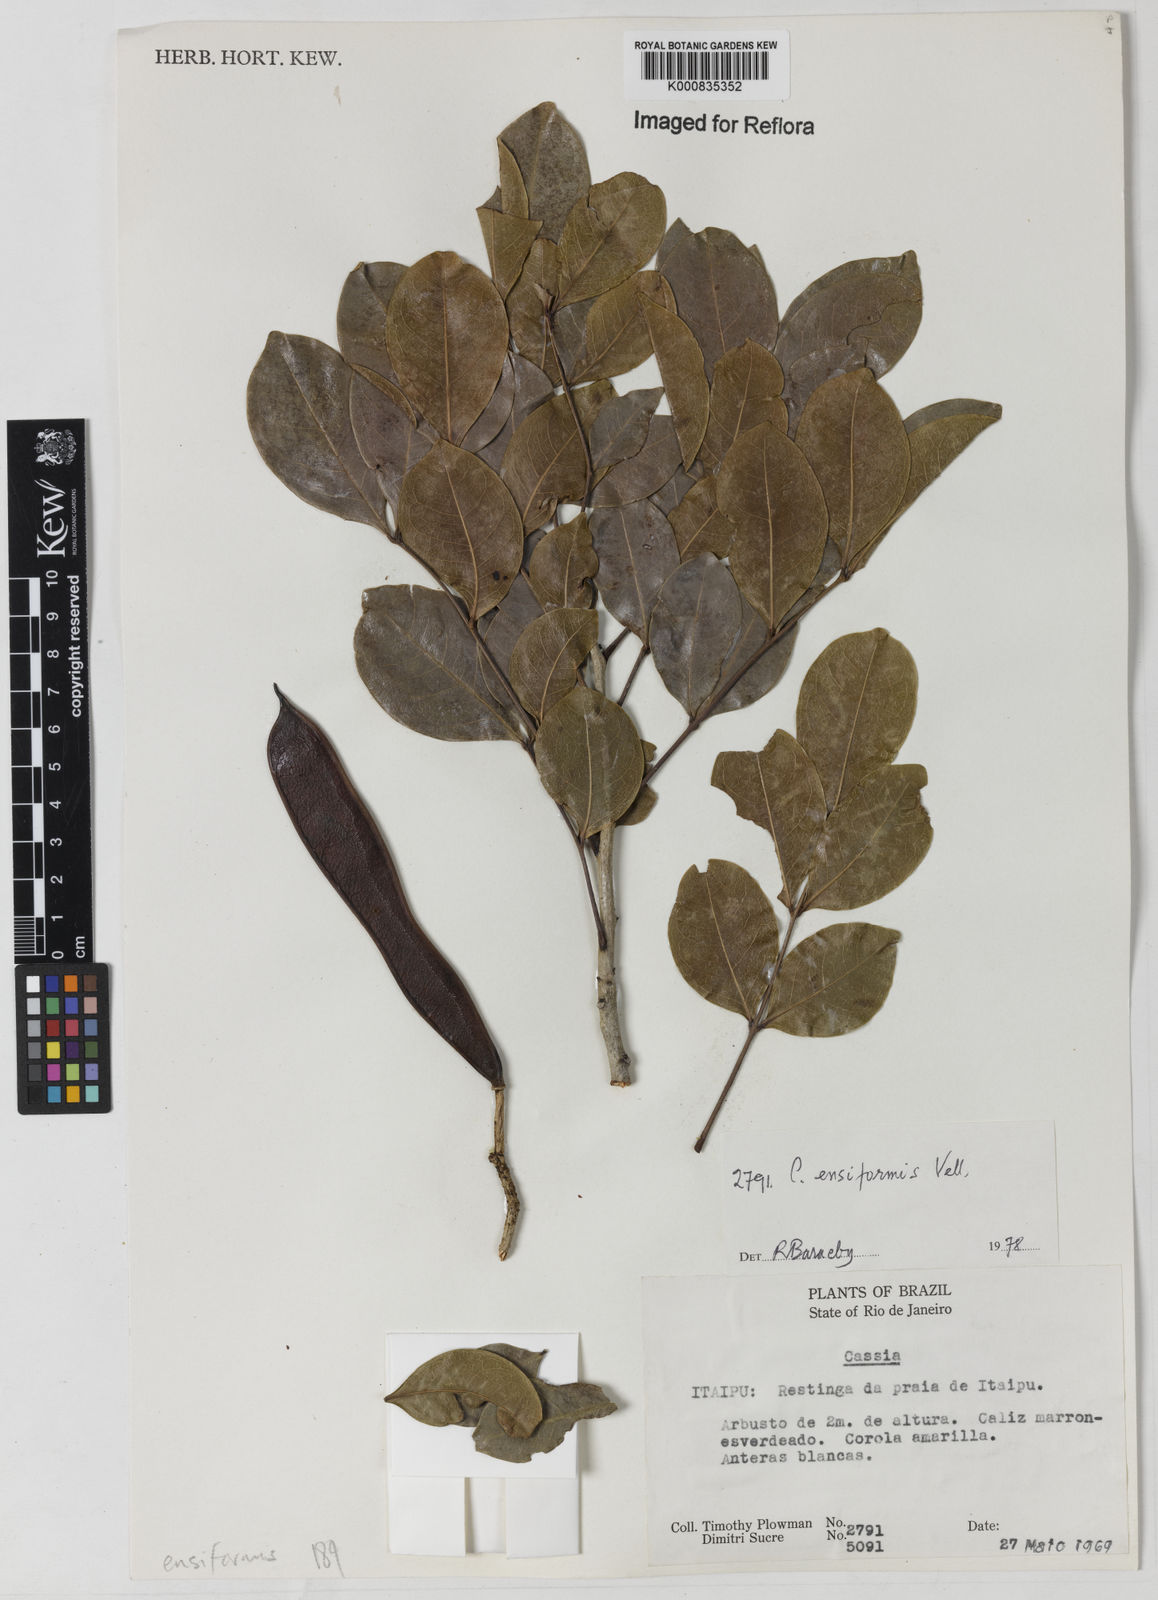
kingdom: Plantae
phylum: Tracheophyta
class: Magnoliopsida
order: Fabales
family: Fabaceae
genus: Chamaecrista
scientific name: Chamaecrista ensiformis
